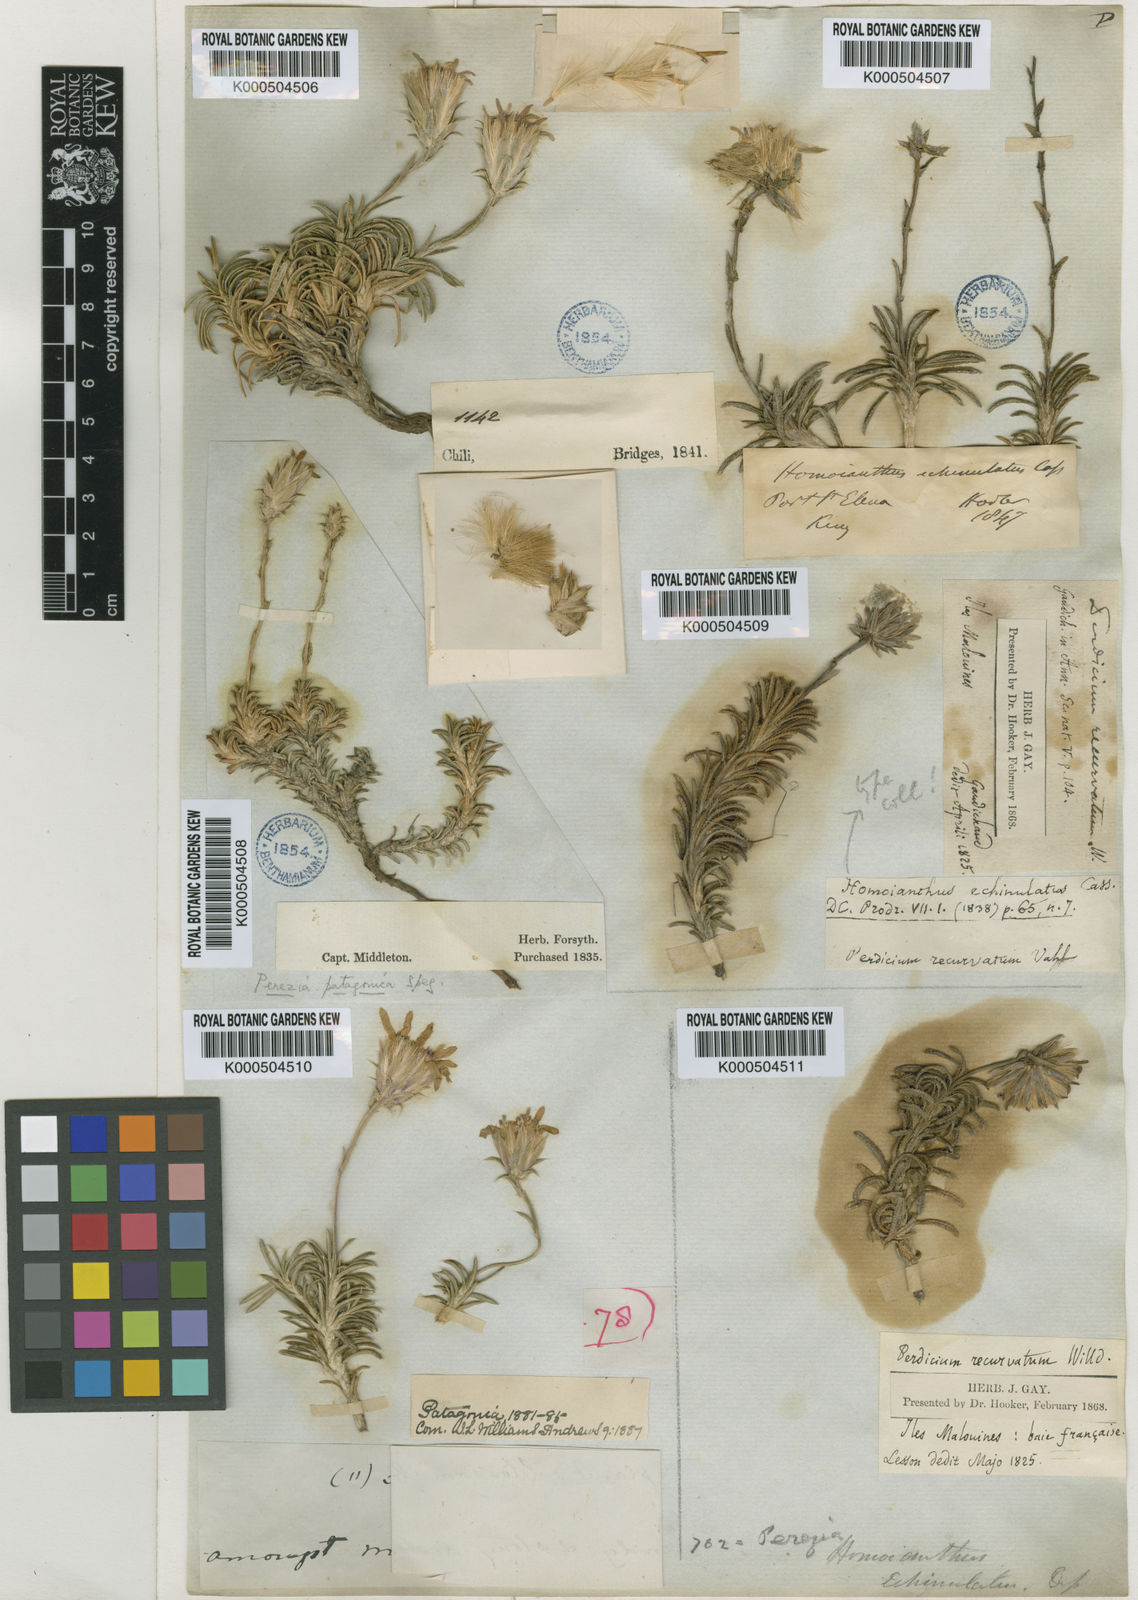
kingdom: Plantae
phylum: Tracheophyta
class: Magnoliopsida
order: Asterales
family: Asteraceae
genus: Perezia
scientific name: Perezia recurvata
